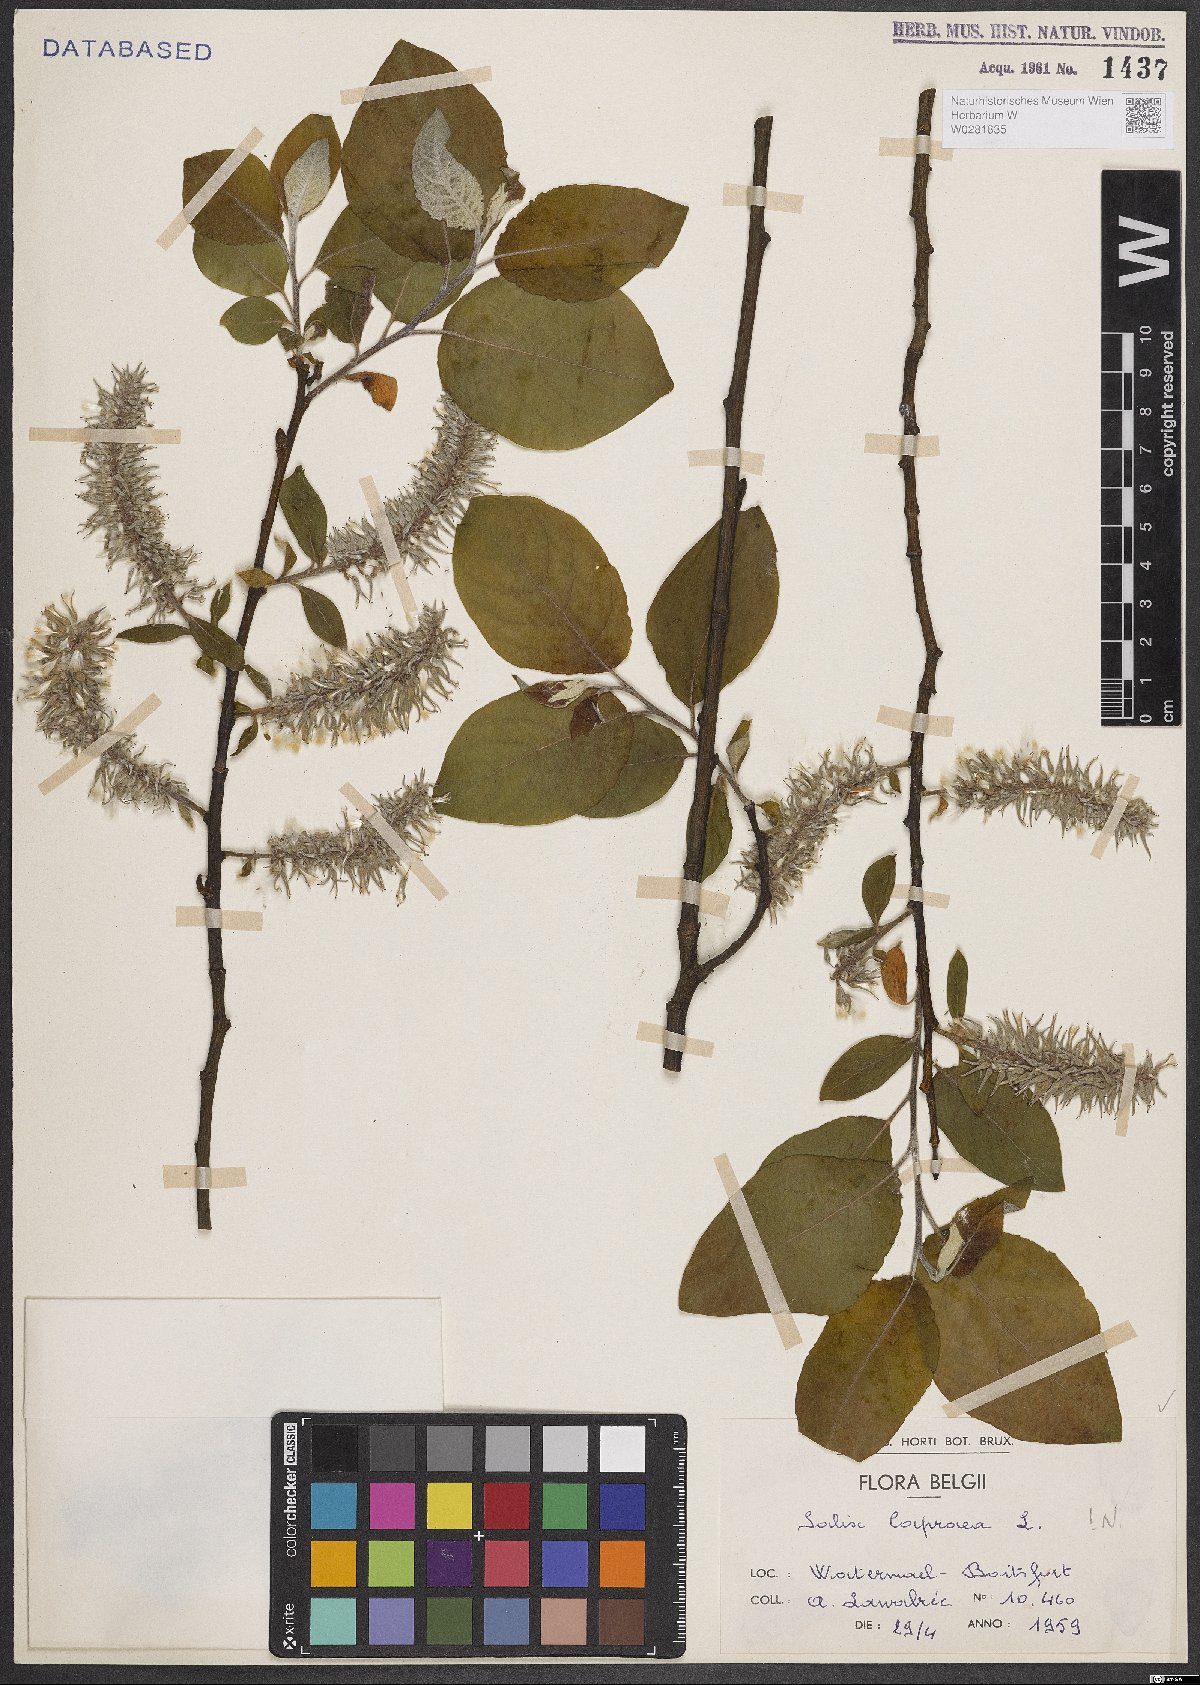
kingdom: Plantae
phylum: Tracheophyta
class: Magnoliopsida
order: Malpighiales
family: Salicaceae
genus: Salix
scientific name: Salix caprea
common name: Goat willow
